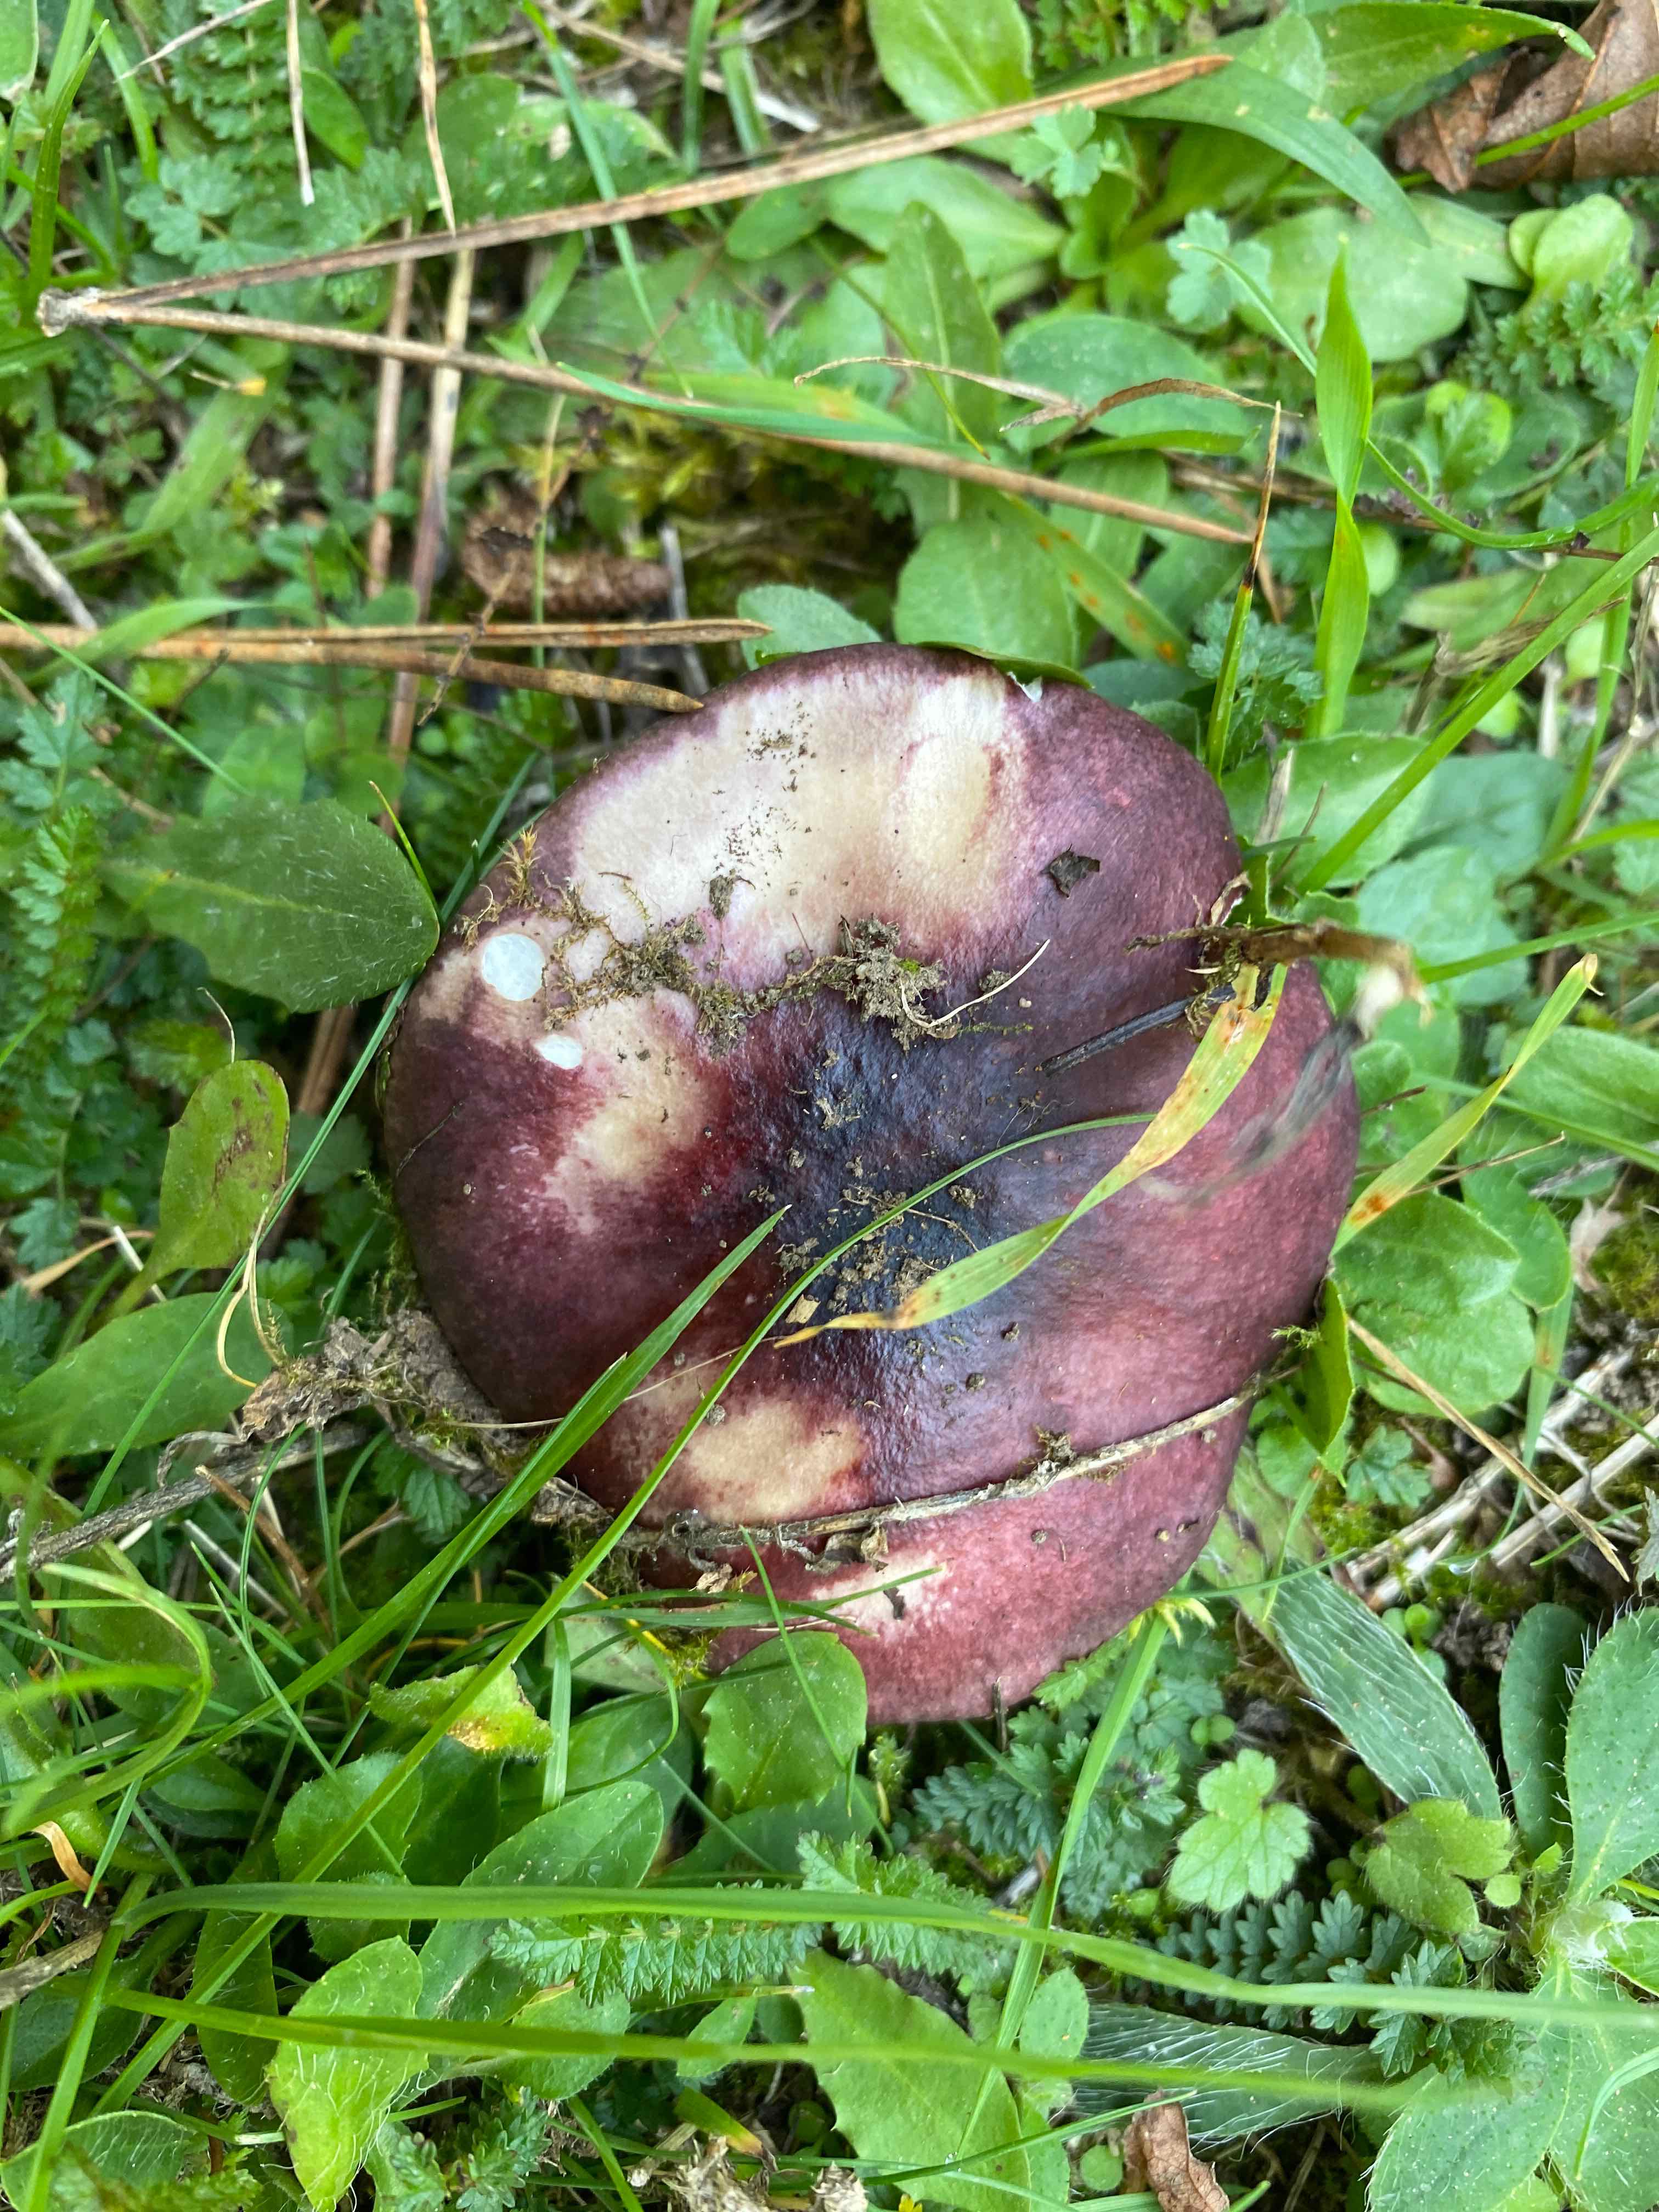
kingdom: Fungi
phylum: Basidiomycota
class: Agaricomycetes
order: Russulales
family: Russulaceae
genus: Russula
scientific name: Russula queletii
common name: Quélets skørhat
